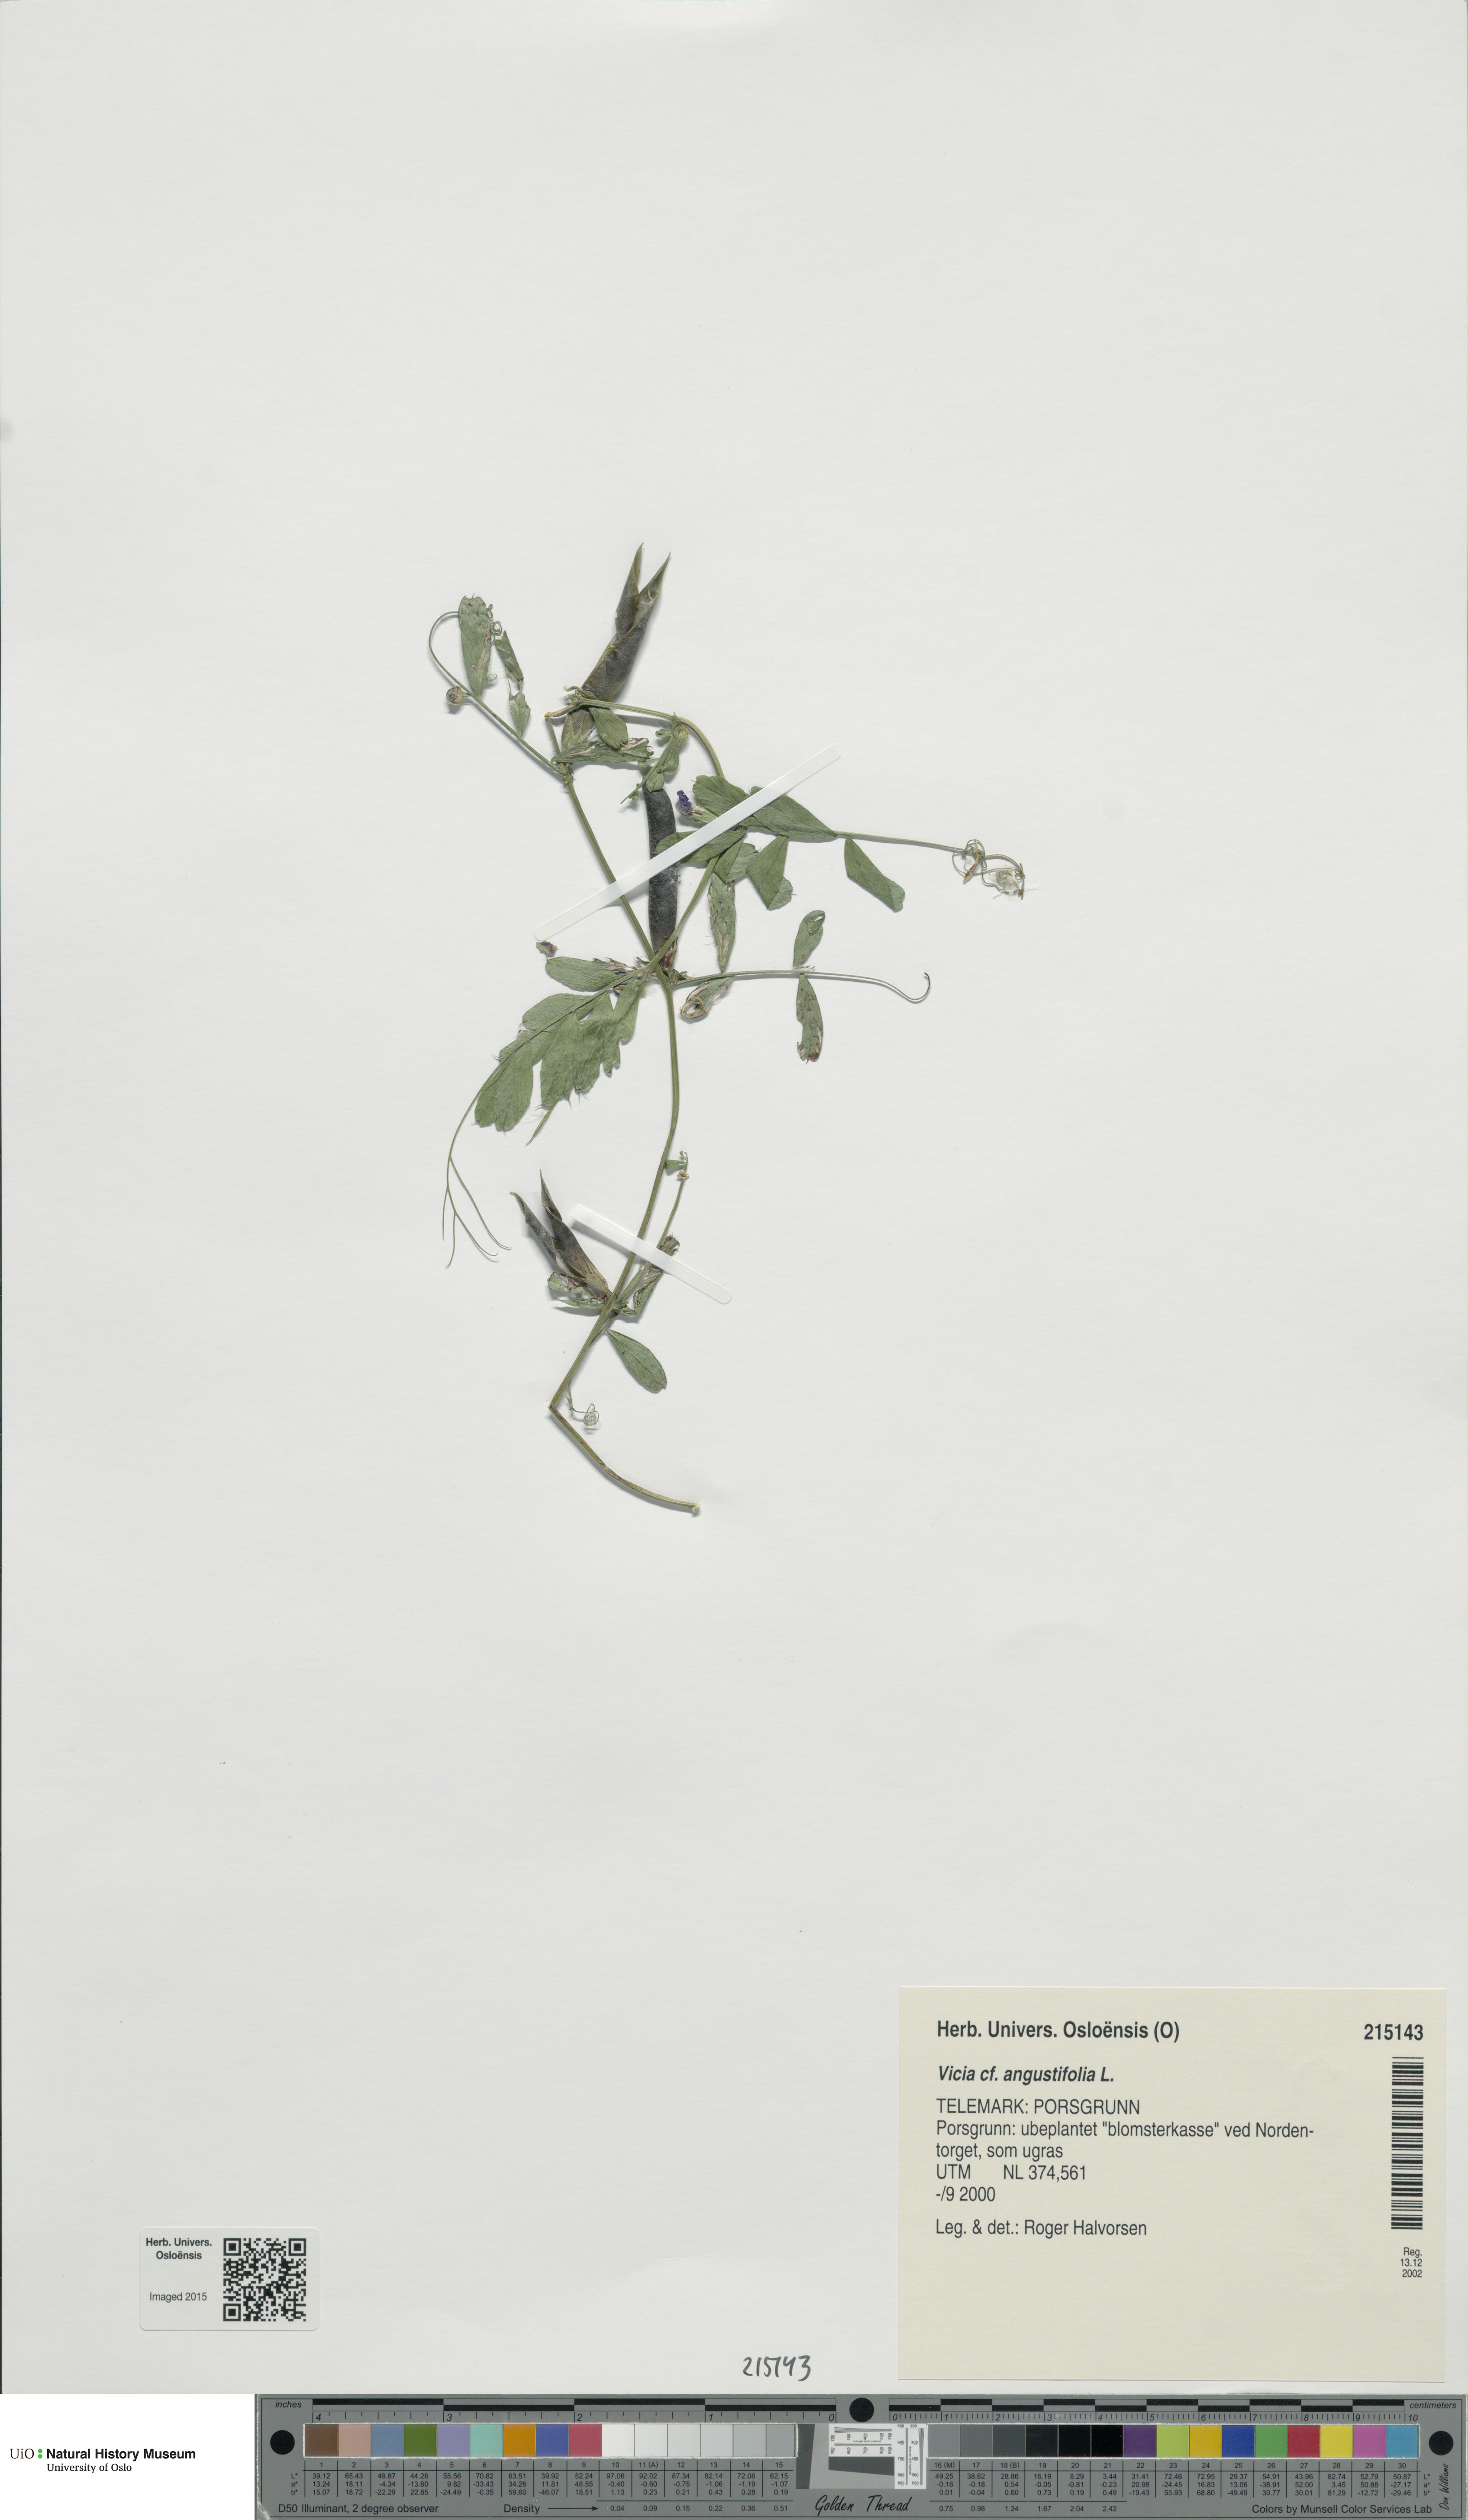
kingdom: Plantae
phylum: Tracheophyta
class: Magnoliopsida
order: Fabales
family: Fabaceae
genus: Vicia
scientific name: Vicia sativa
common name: Garden vetch
